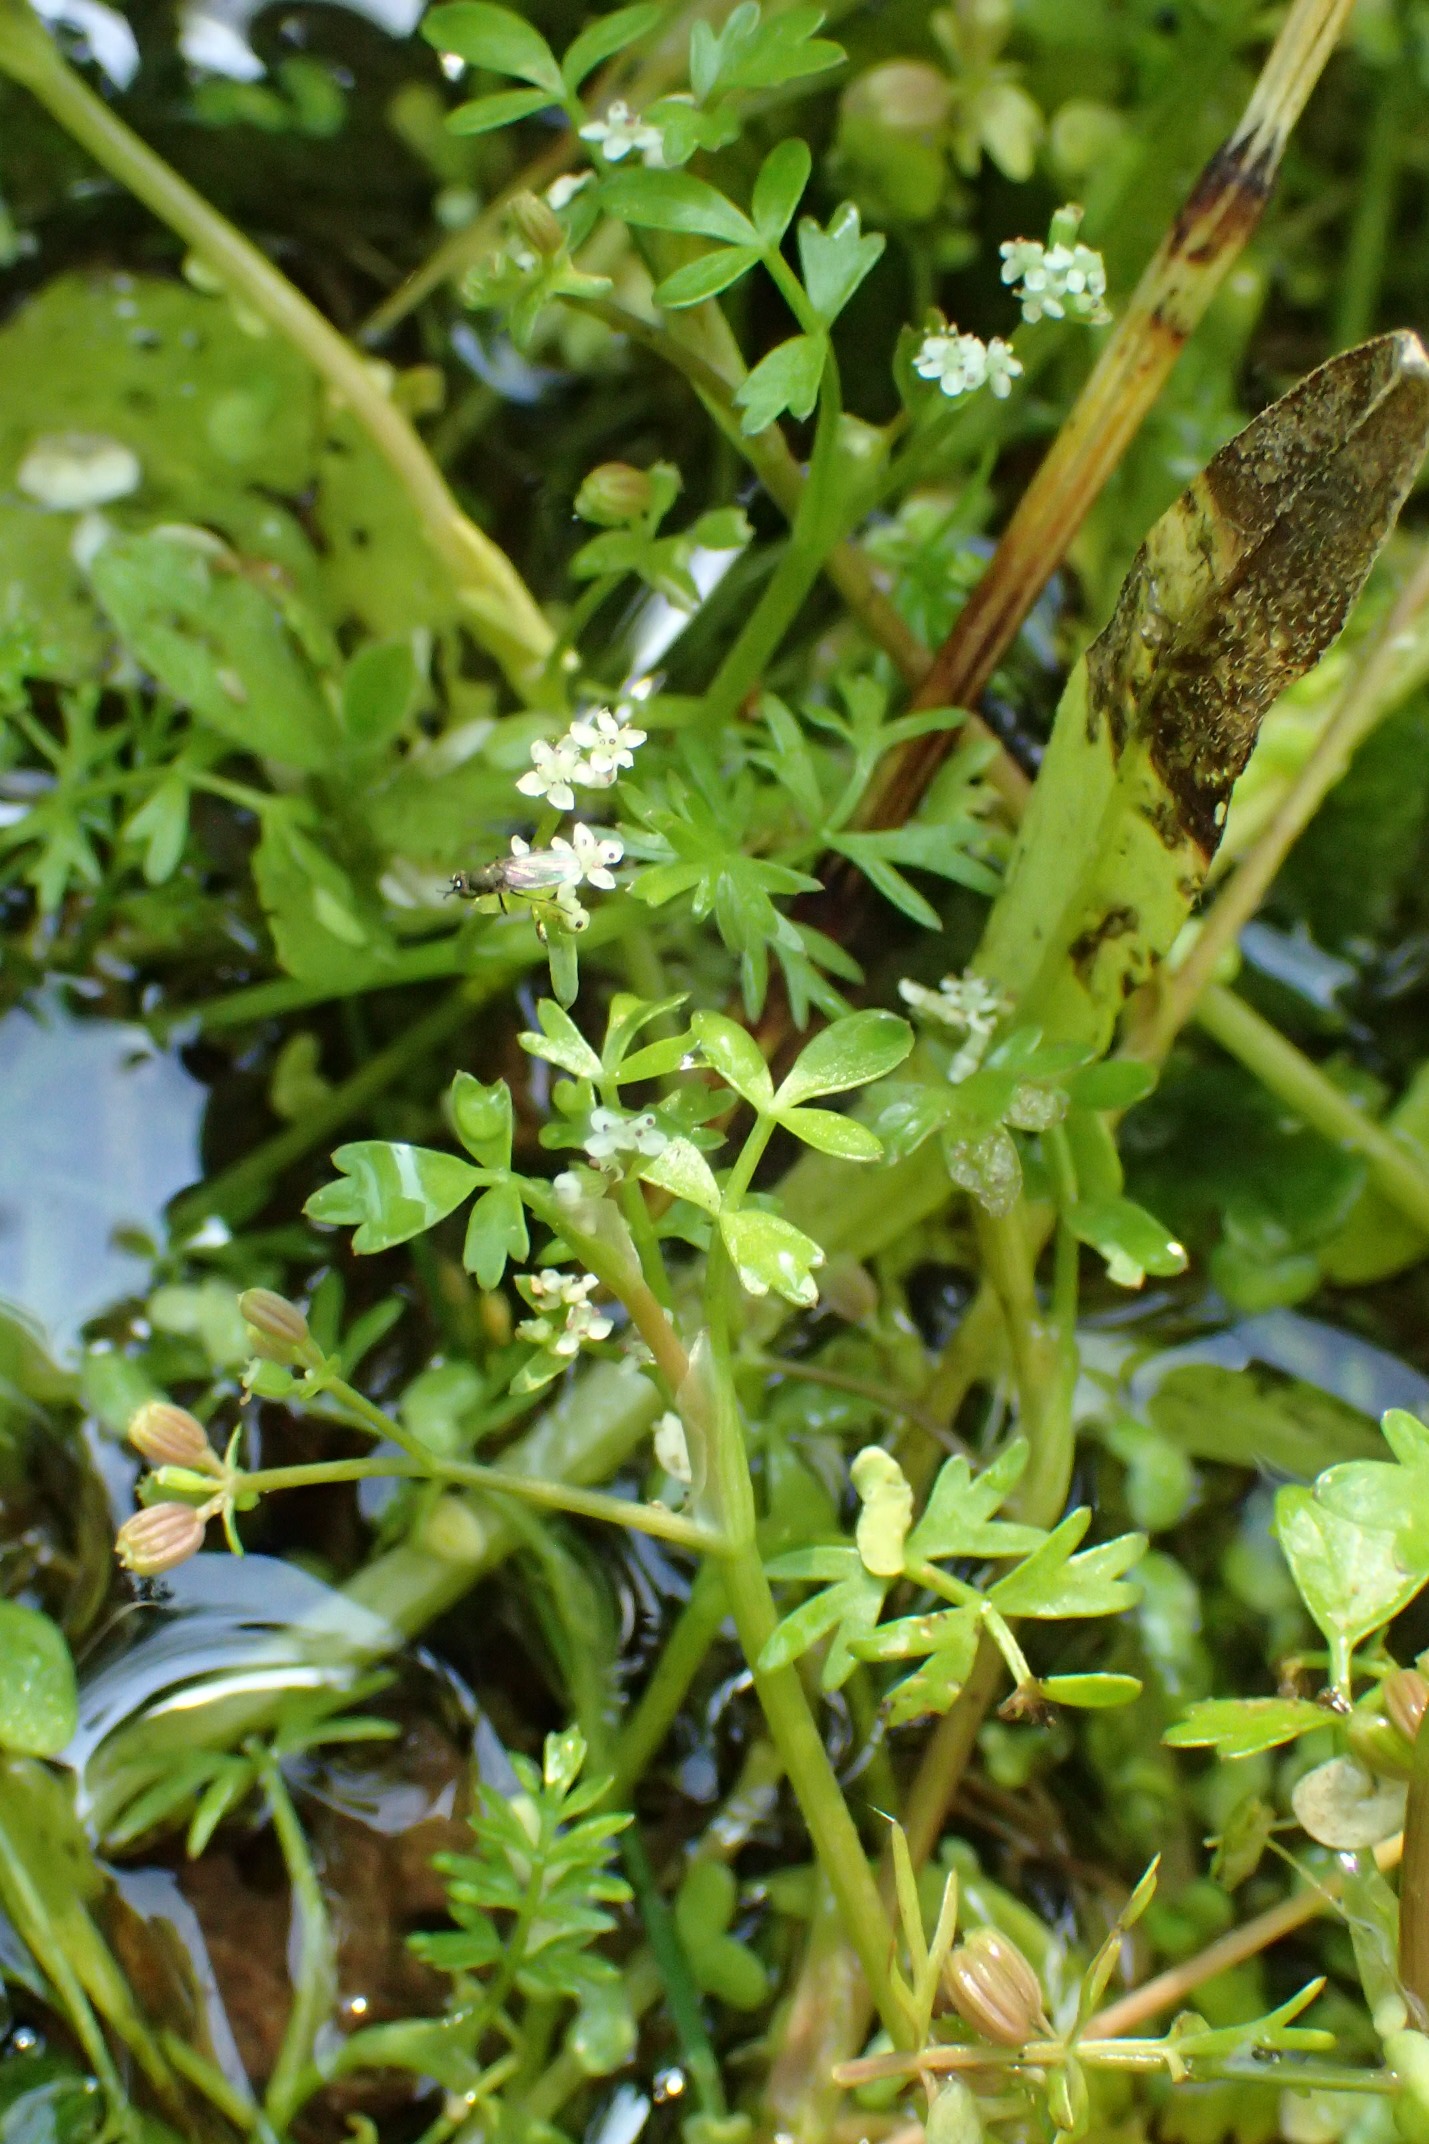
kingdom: Plantae
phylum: Tracheophyta
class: Magnoliopsida
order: Apiales
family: Apiaceae
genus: Helosciadium
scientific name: Helosciadium inundatum
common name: Svømmende sumpskærm
